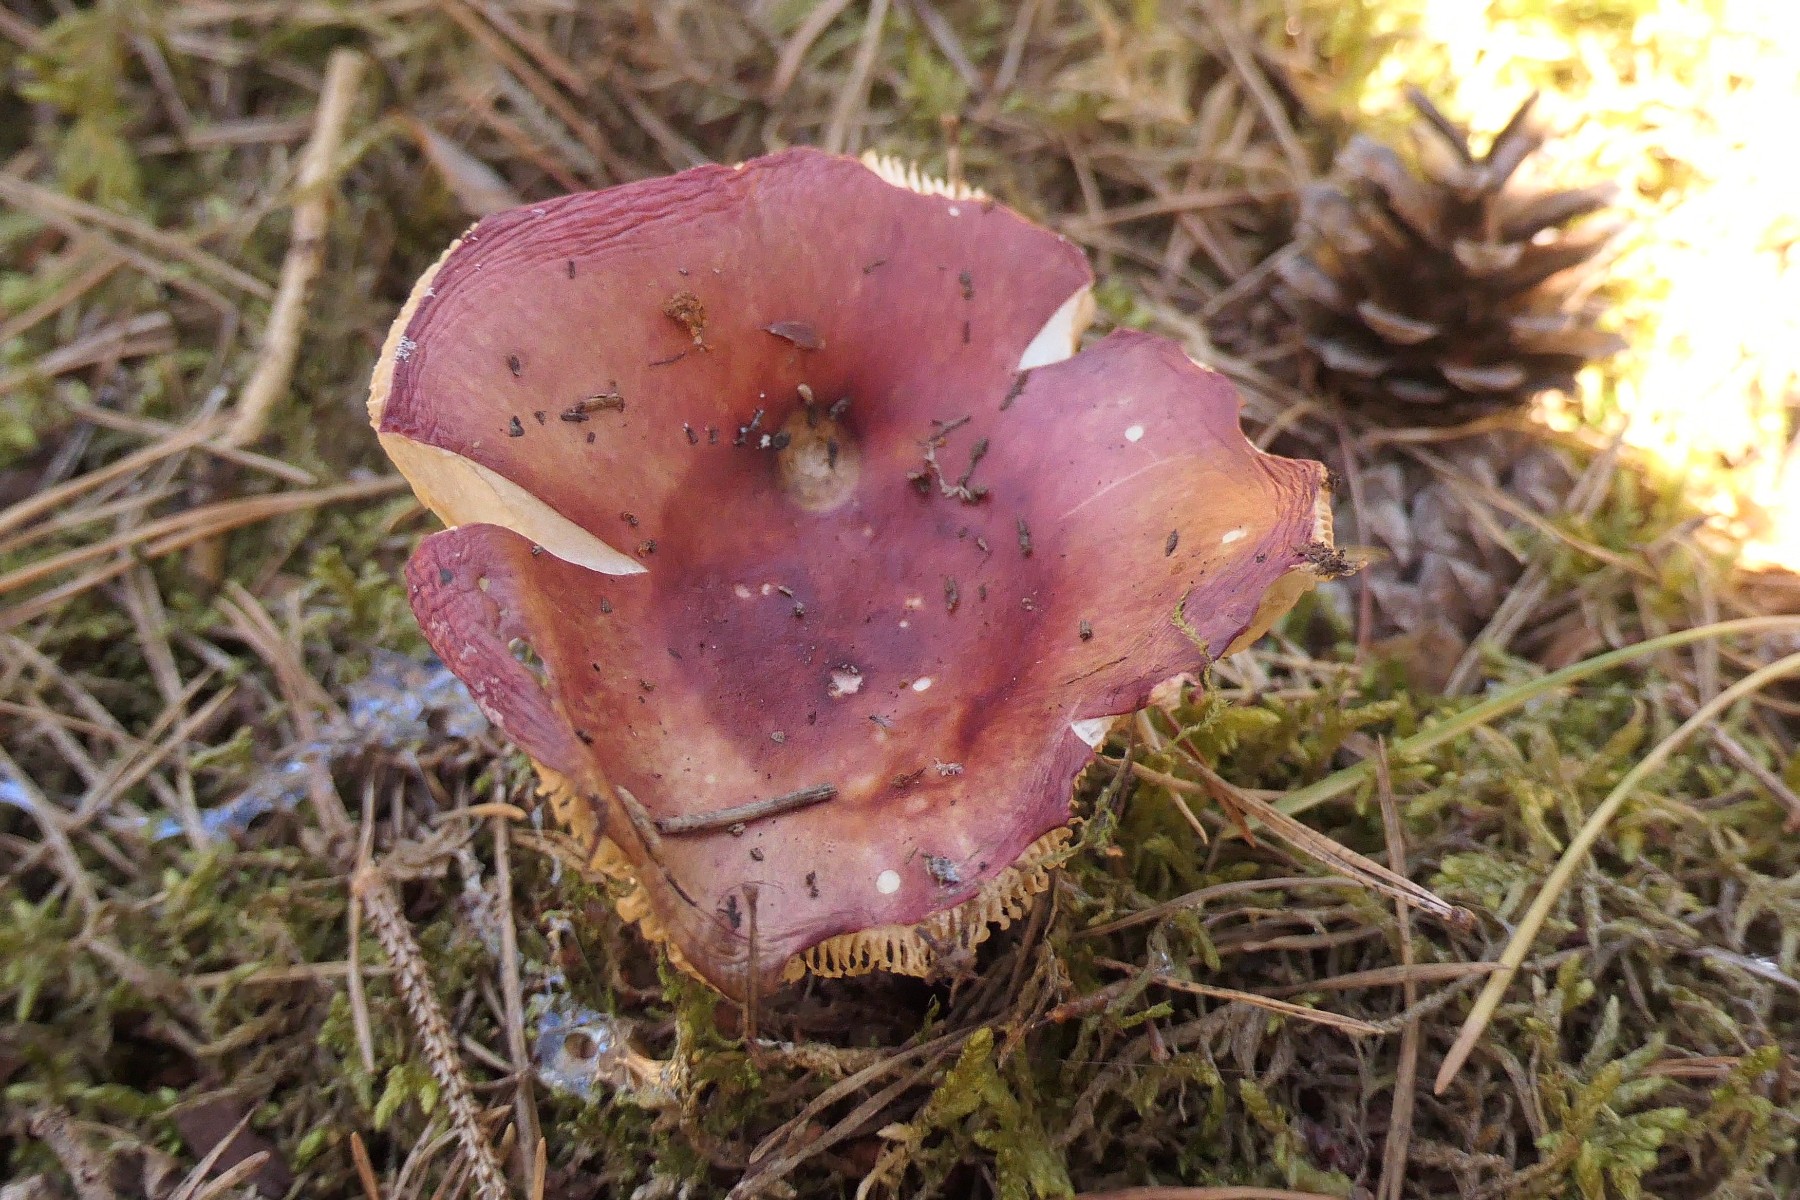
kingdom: Fungi
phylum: Basidiomycota
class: Agaricomycetes
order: Russulales
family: Russulaceae
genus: Russula
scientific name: Russula paludosa
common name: prægtig skørhat
